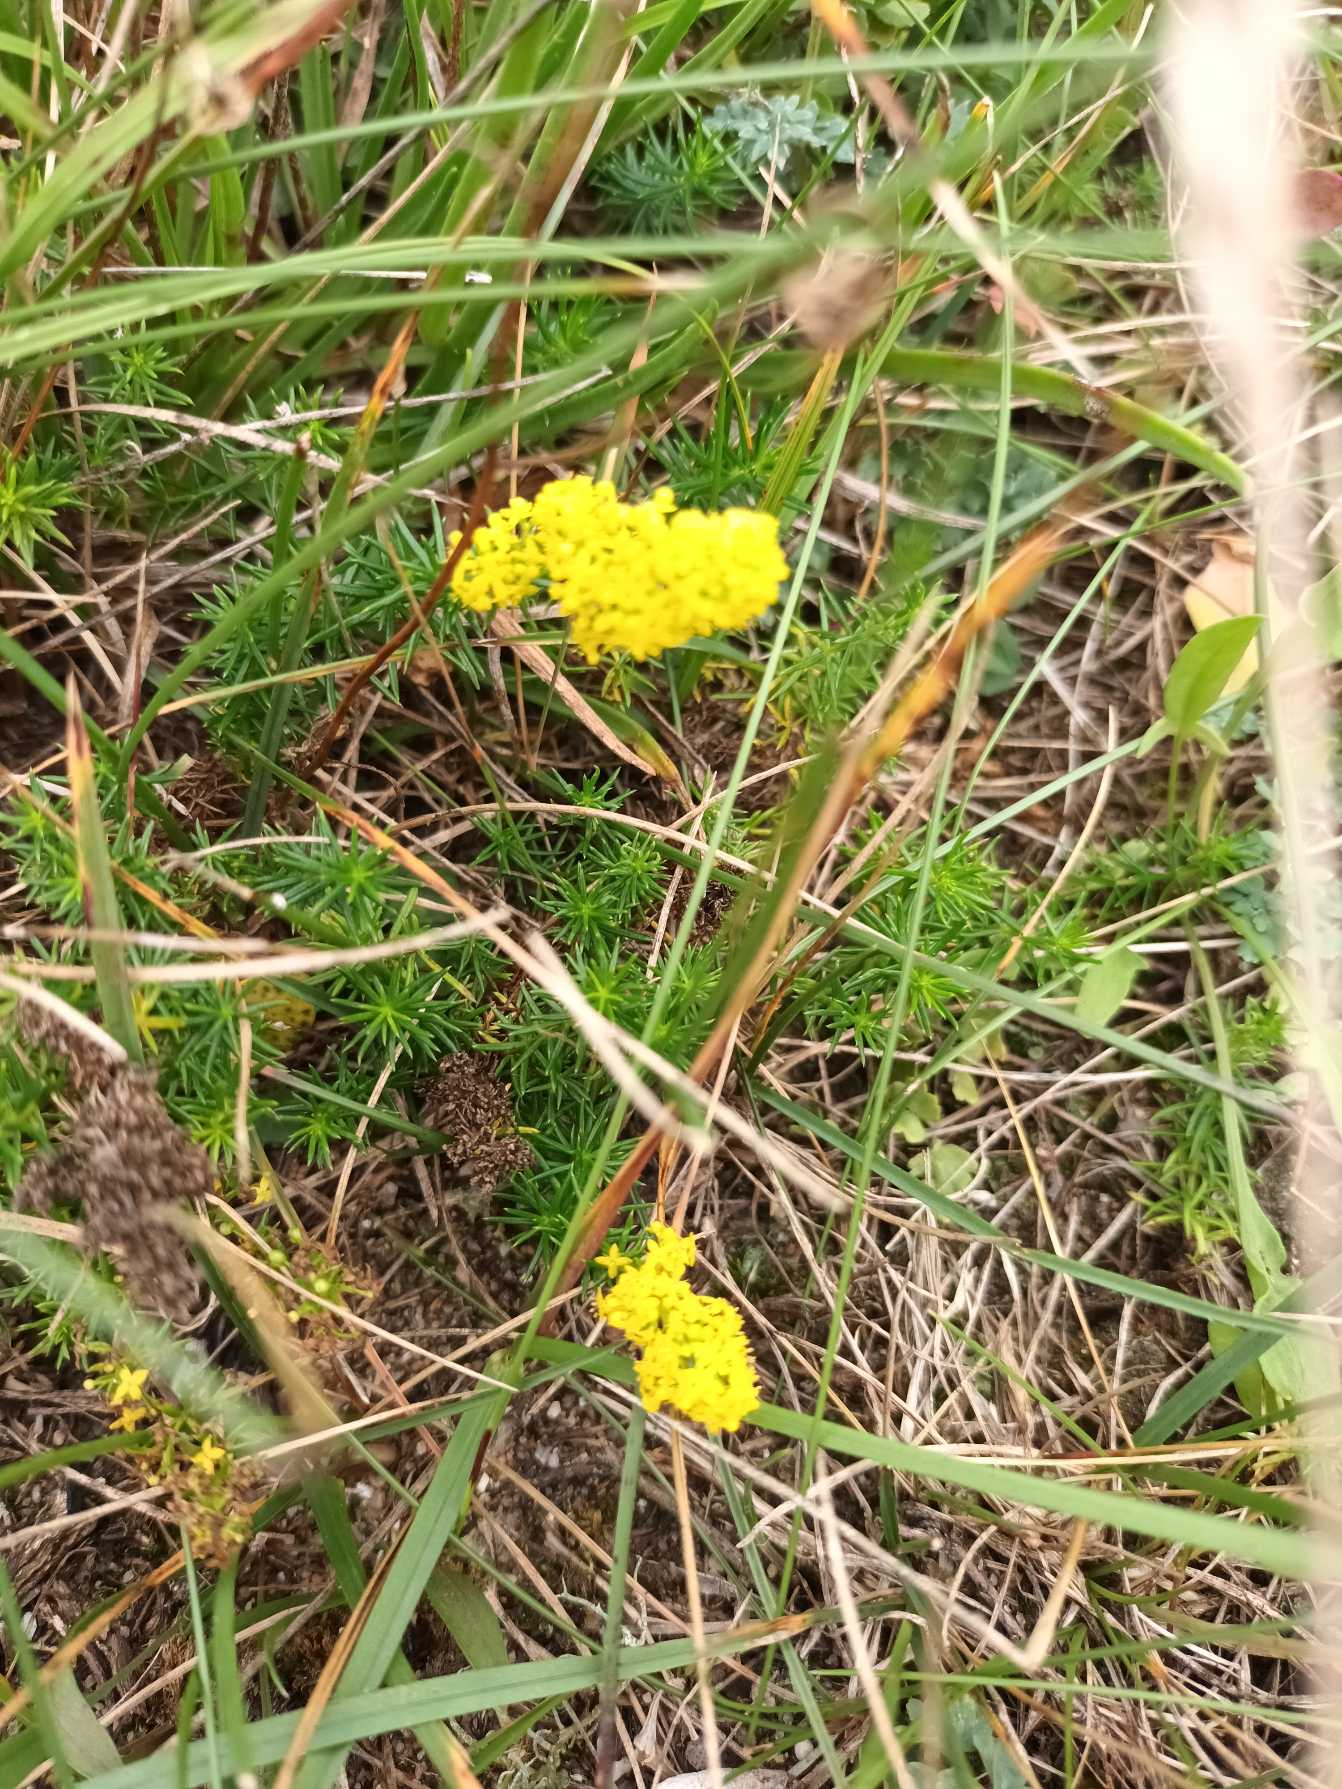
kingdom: Plantae
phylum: Tracheophyta
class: Magnoliopsida
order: Gentianales
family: Rubiaceae
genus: Galium
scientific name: Galium verum
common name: Gul snerre
